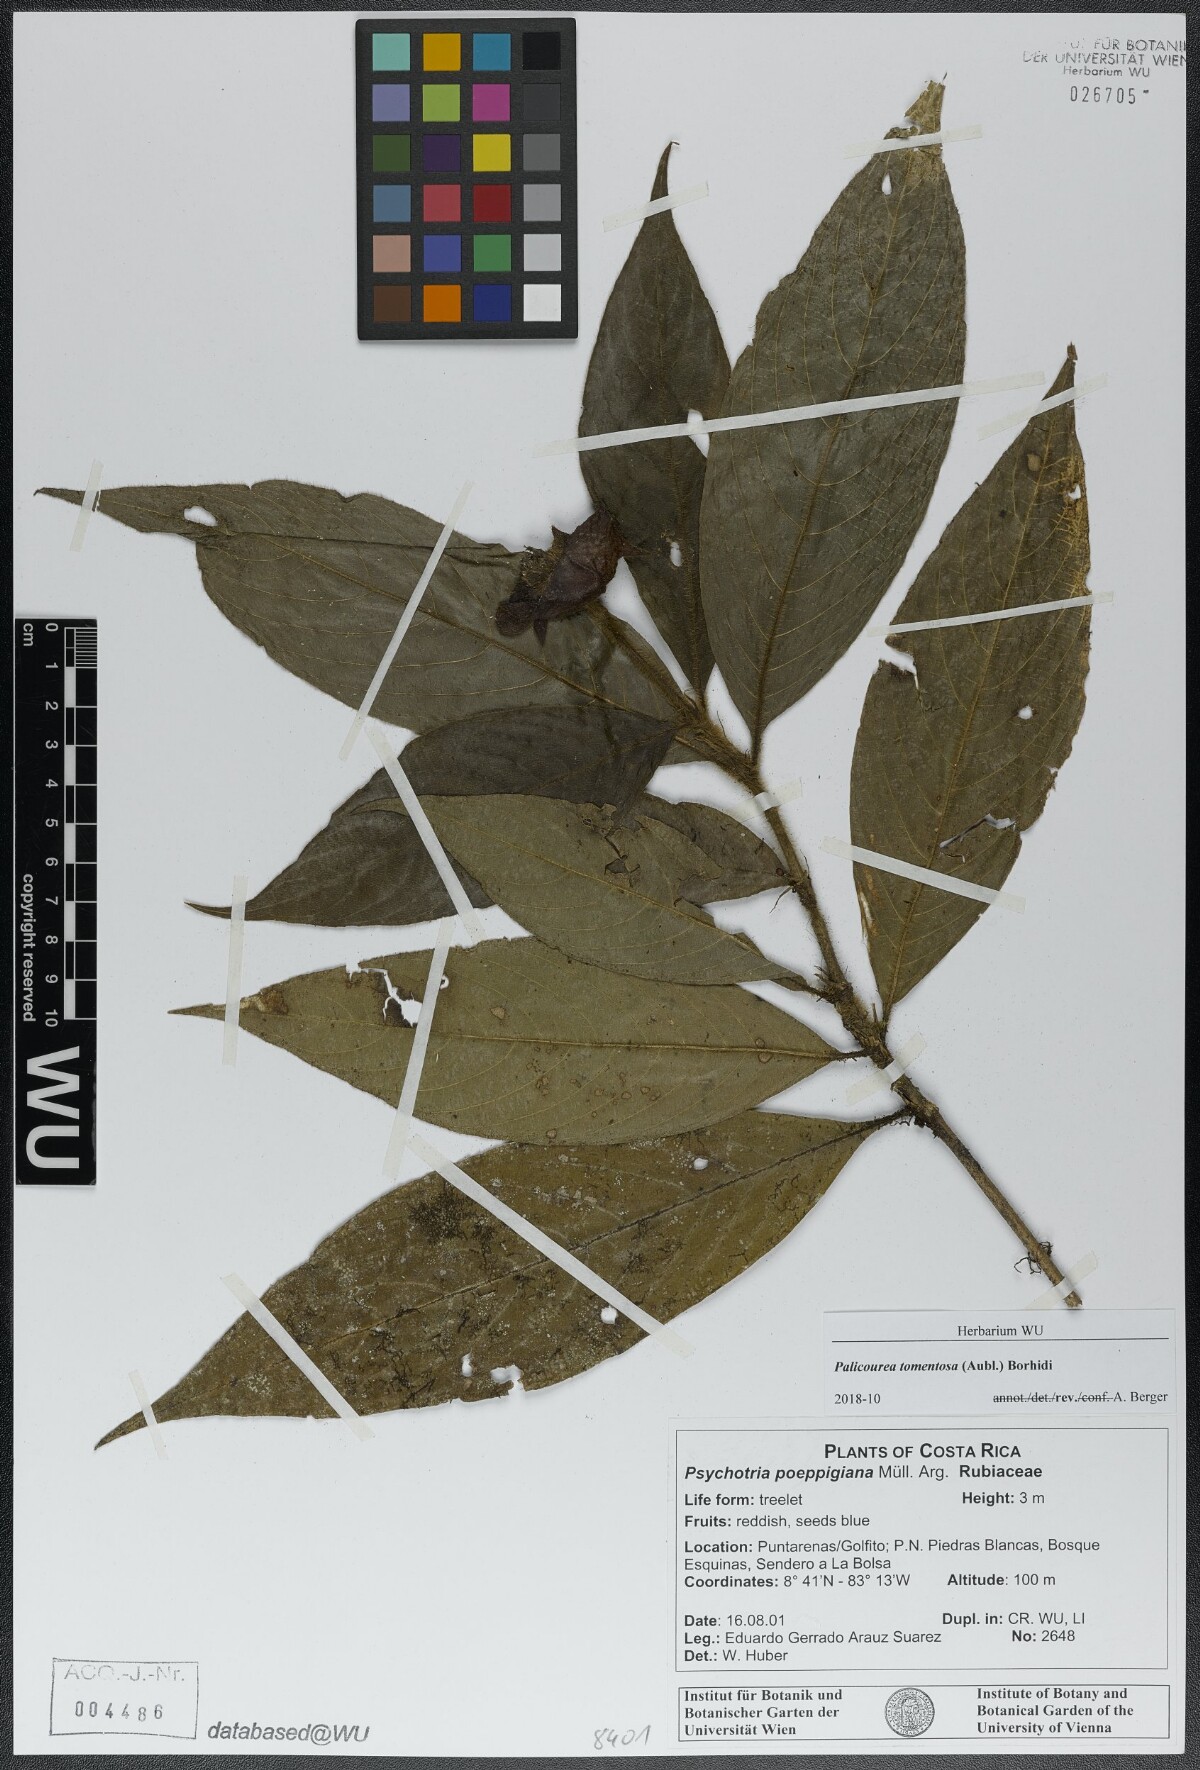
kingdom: Plantae
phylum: Tracheophyta
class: Magnoliopsida
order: Gentianales
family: Rubiaceae
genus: Palicourea
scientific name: Palicourea tomentosa
